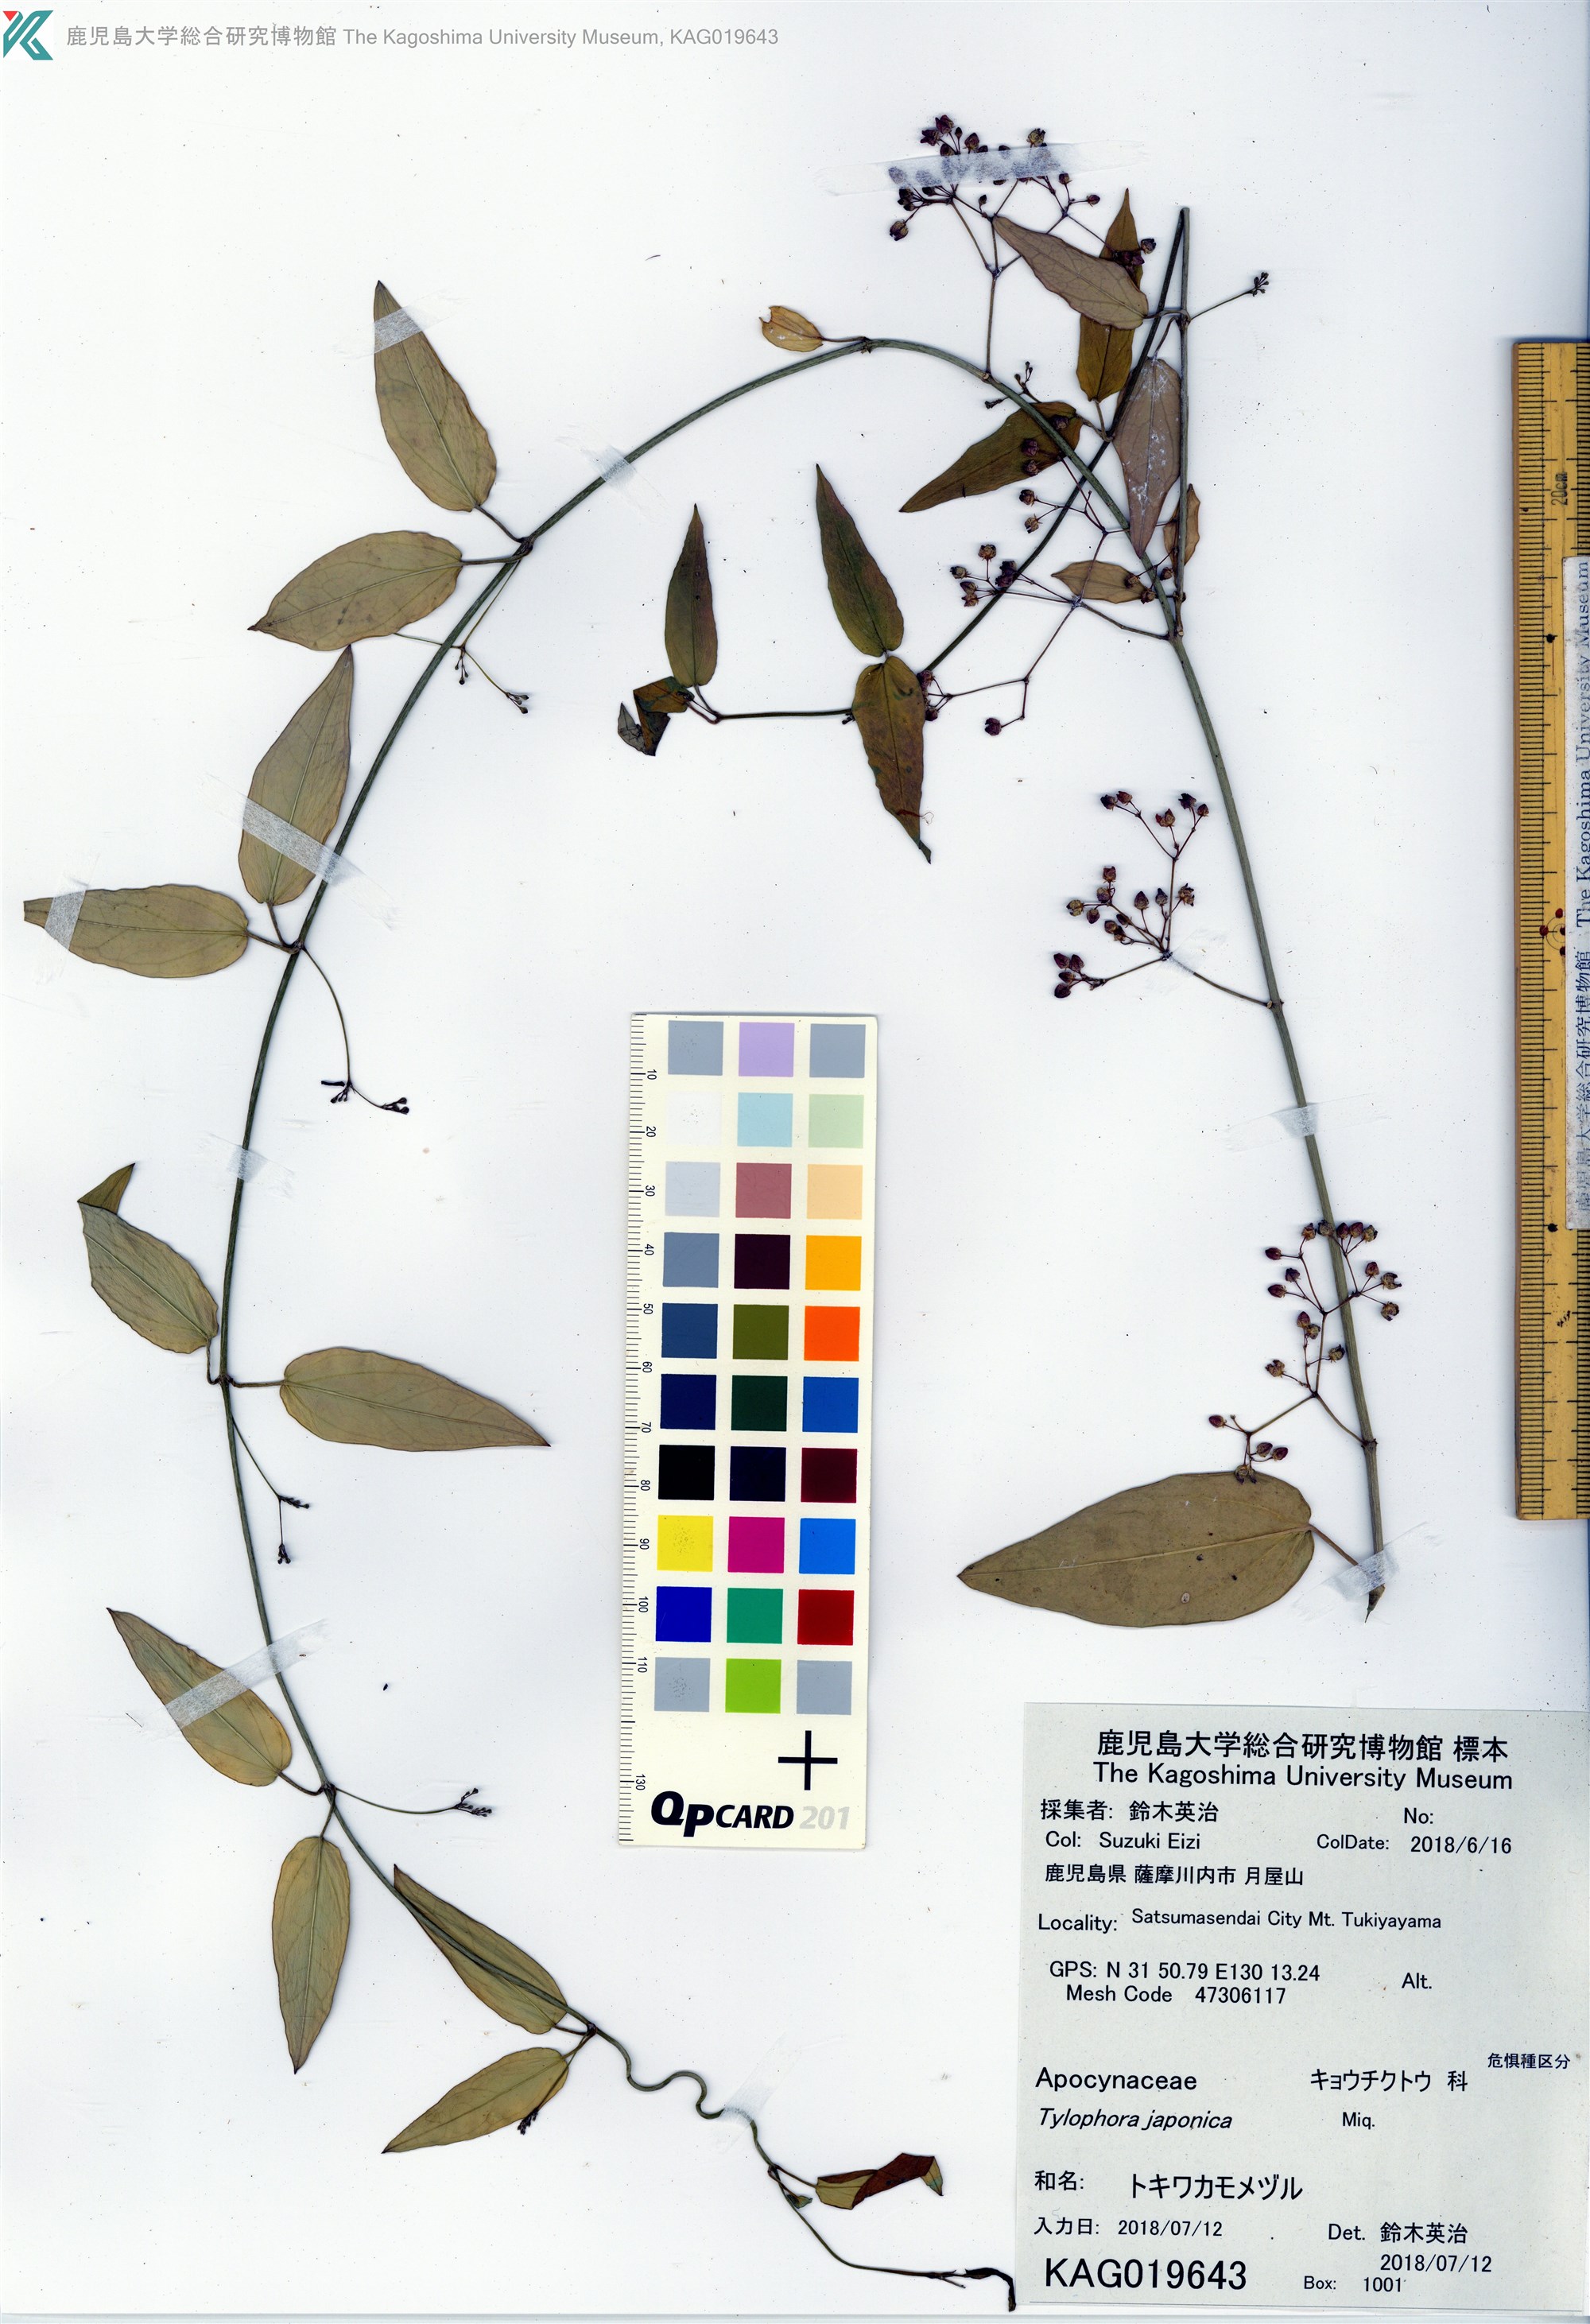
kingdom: Plantae
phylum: Tracheophyta
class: Magnoliopsida
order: Gentianales
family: Apocynaceae
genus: Vincetoxicum
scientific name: Vincetoxicum sieboldii
